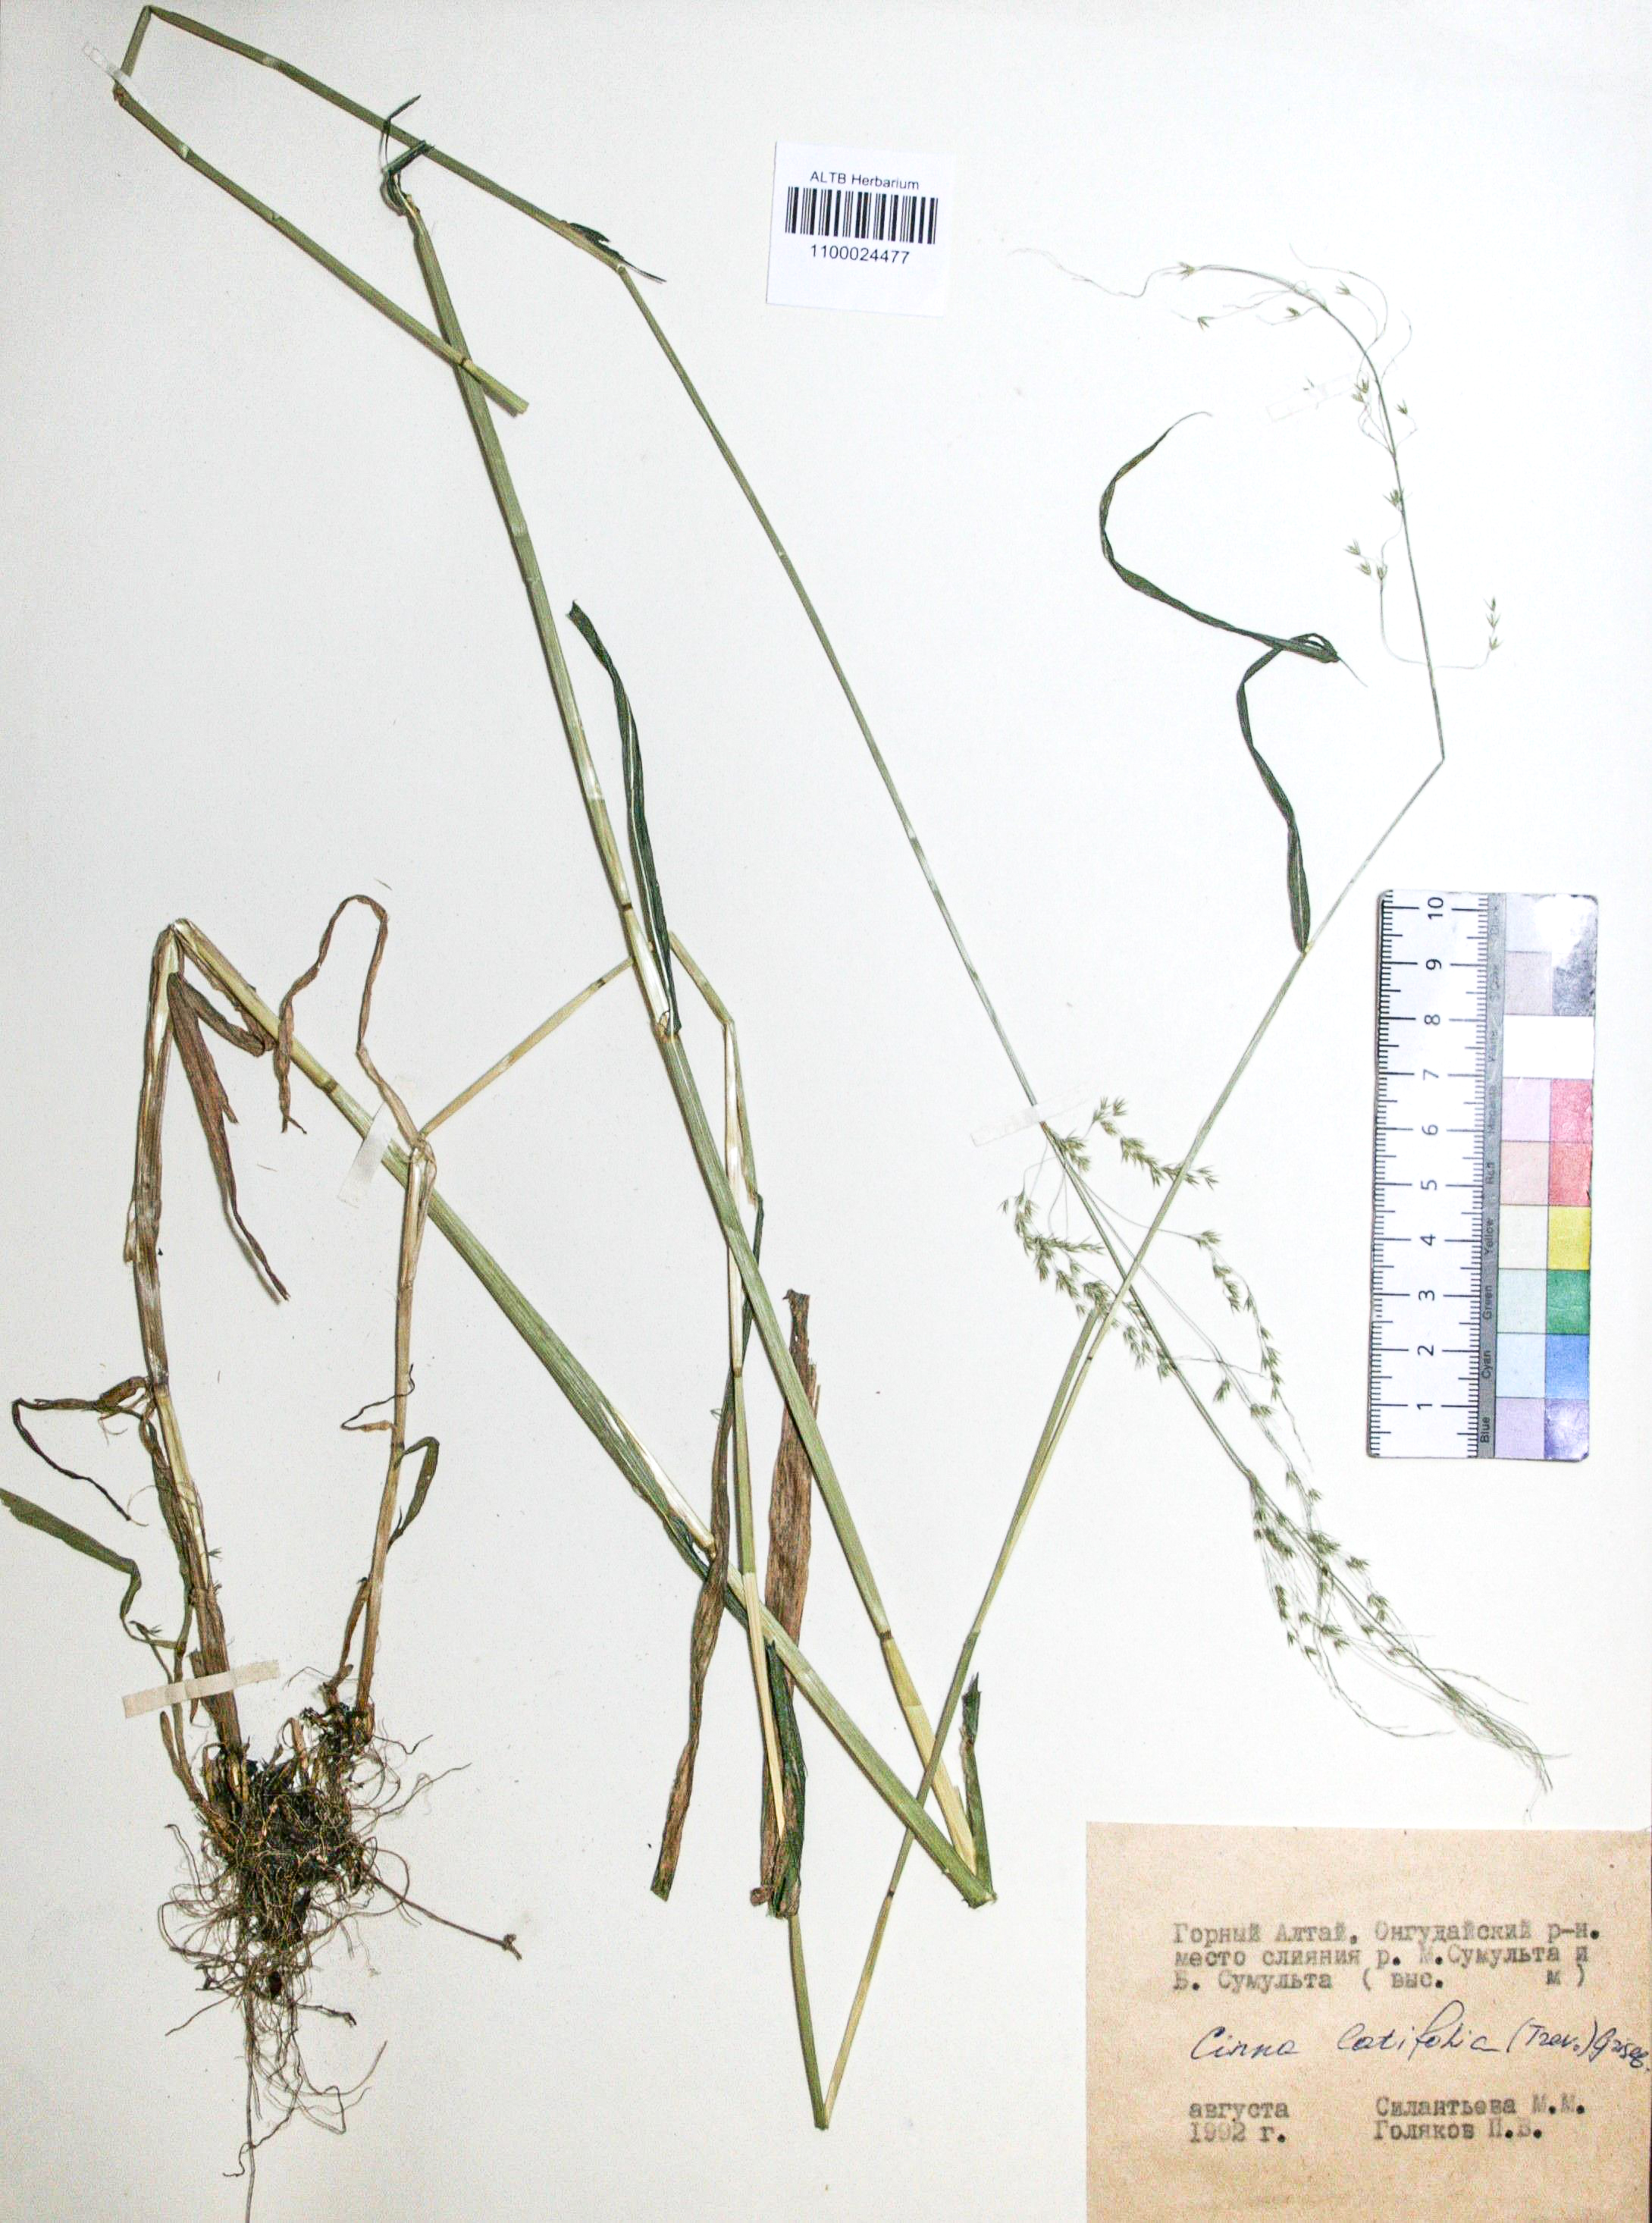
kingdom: Plantae
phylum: Tracheophyta
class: Liliopsida
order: Poales
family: Poaceae
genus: Cinna
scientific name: Cinna latifolia
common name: Drooping woodreed
